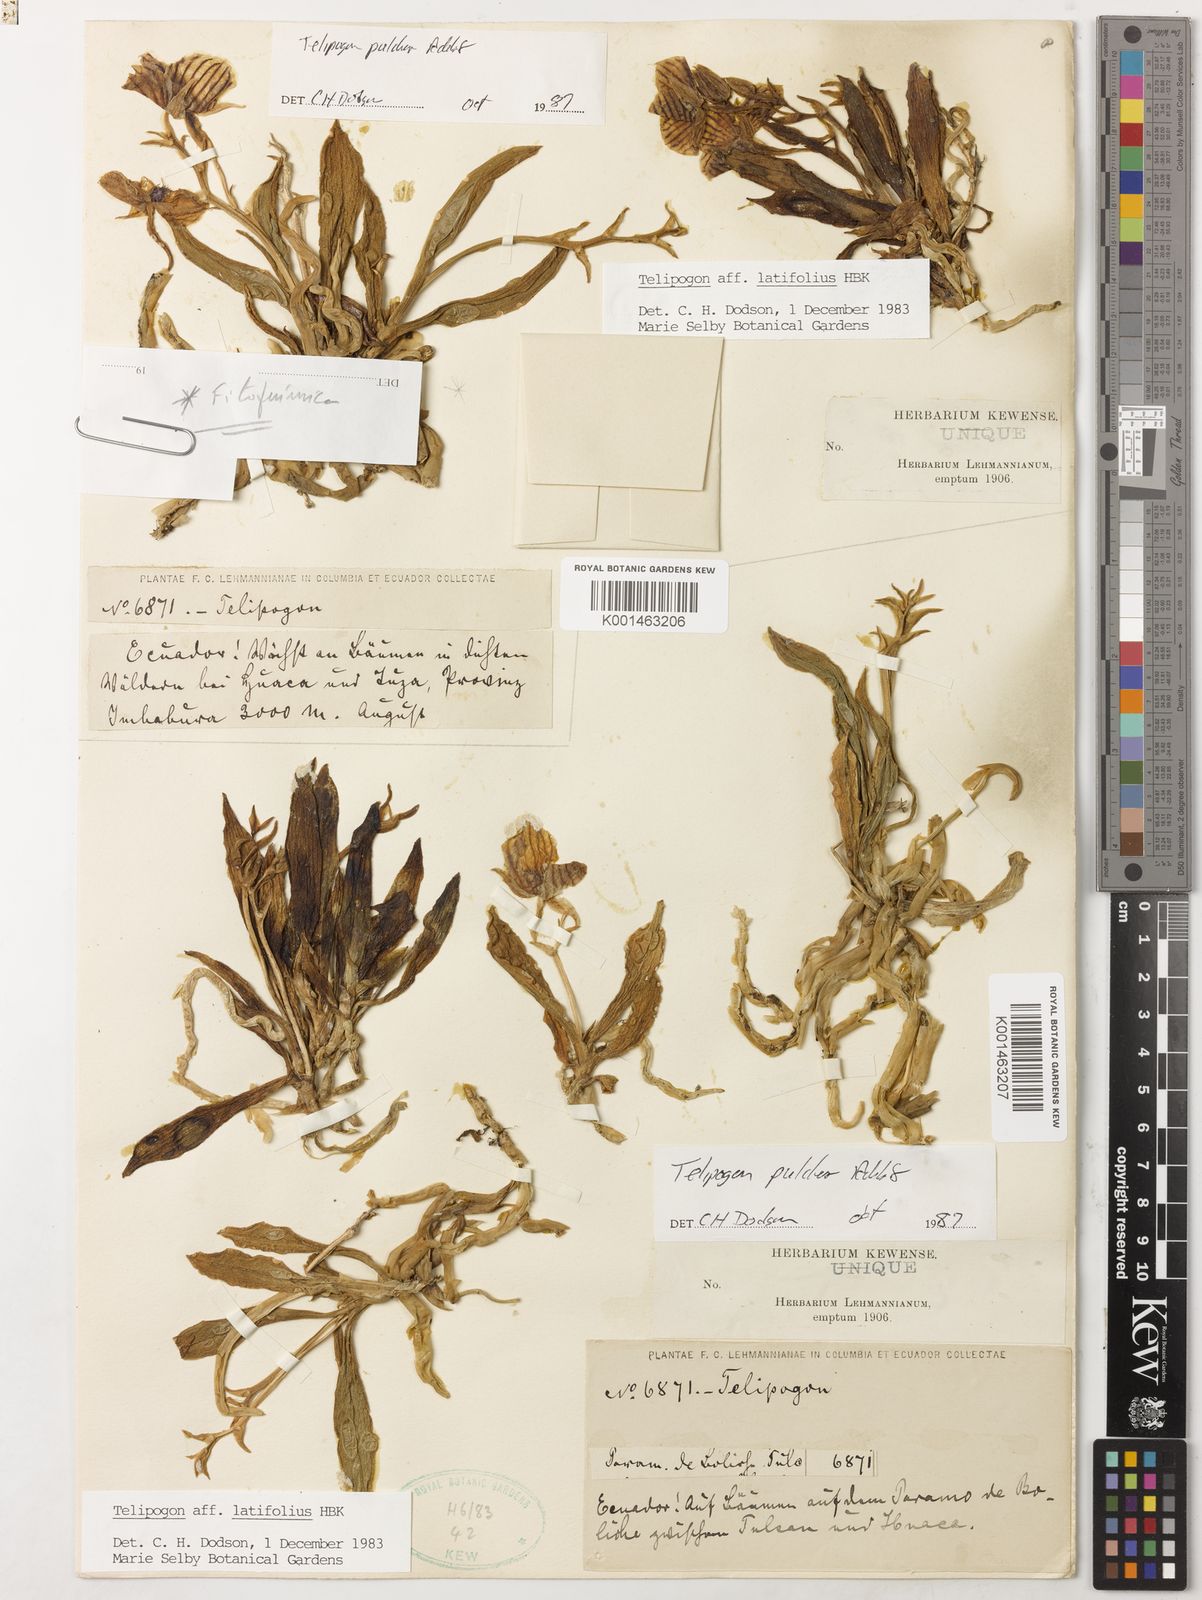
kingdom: Plantae
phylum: Tracheophyta
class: Liliopsida
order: Asparagales
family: Orchidaceae
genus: Telipogon
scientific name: Telipogon pulcher
